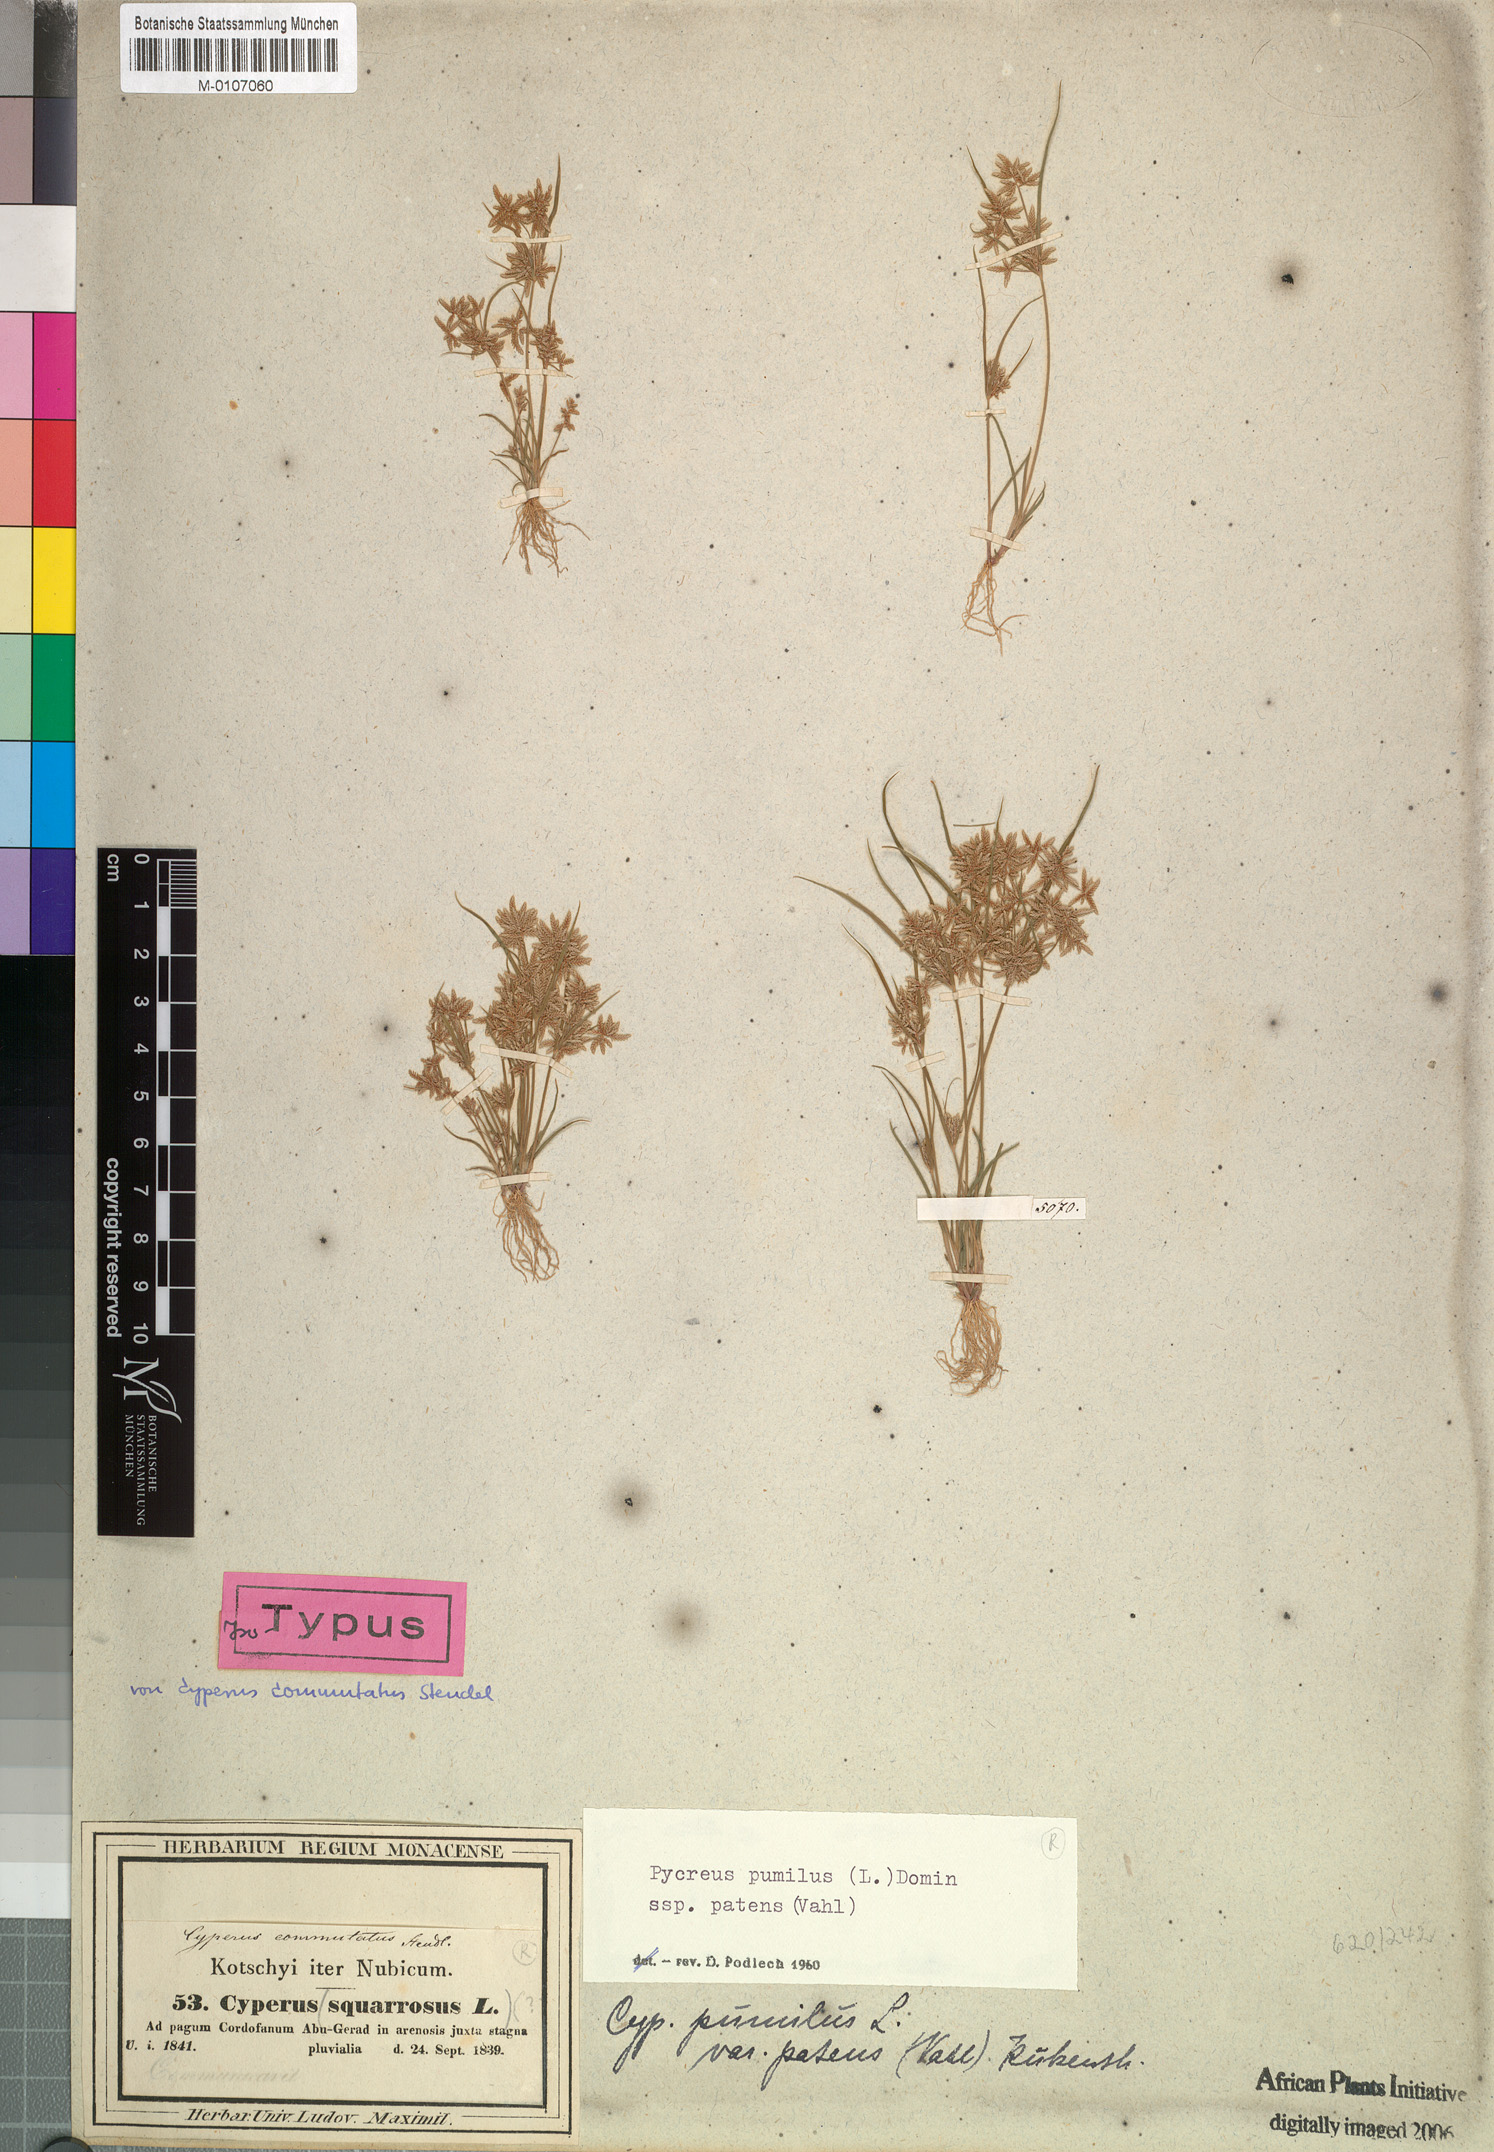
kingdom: Plantae
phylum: Tracheophyta
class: Liliopsida
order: Poales
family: Cyperaceae
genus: Cyperus
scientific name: Cyperus pumilus
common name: Low flatsedge
